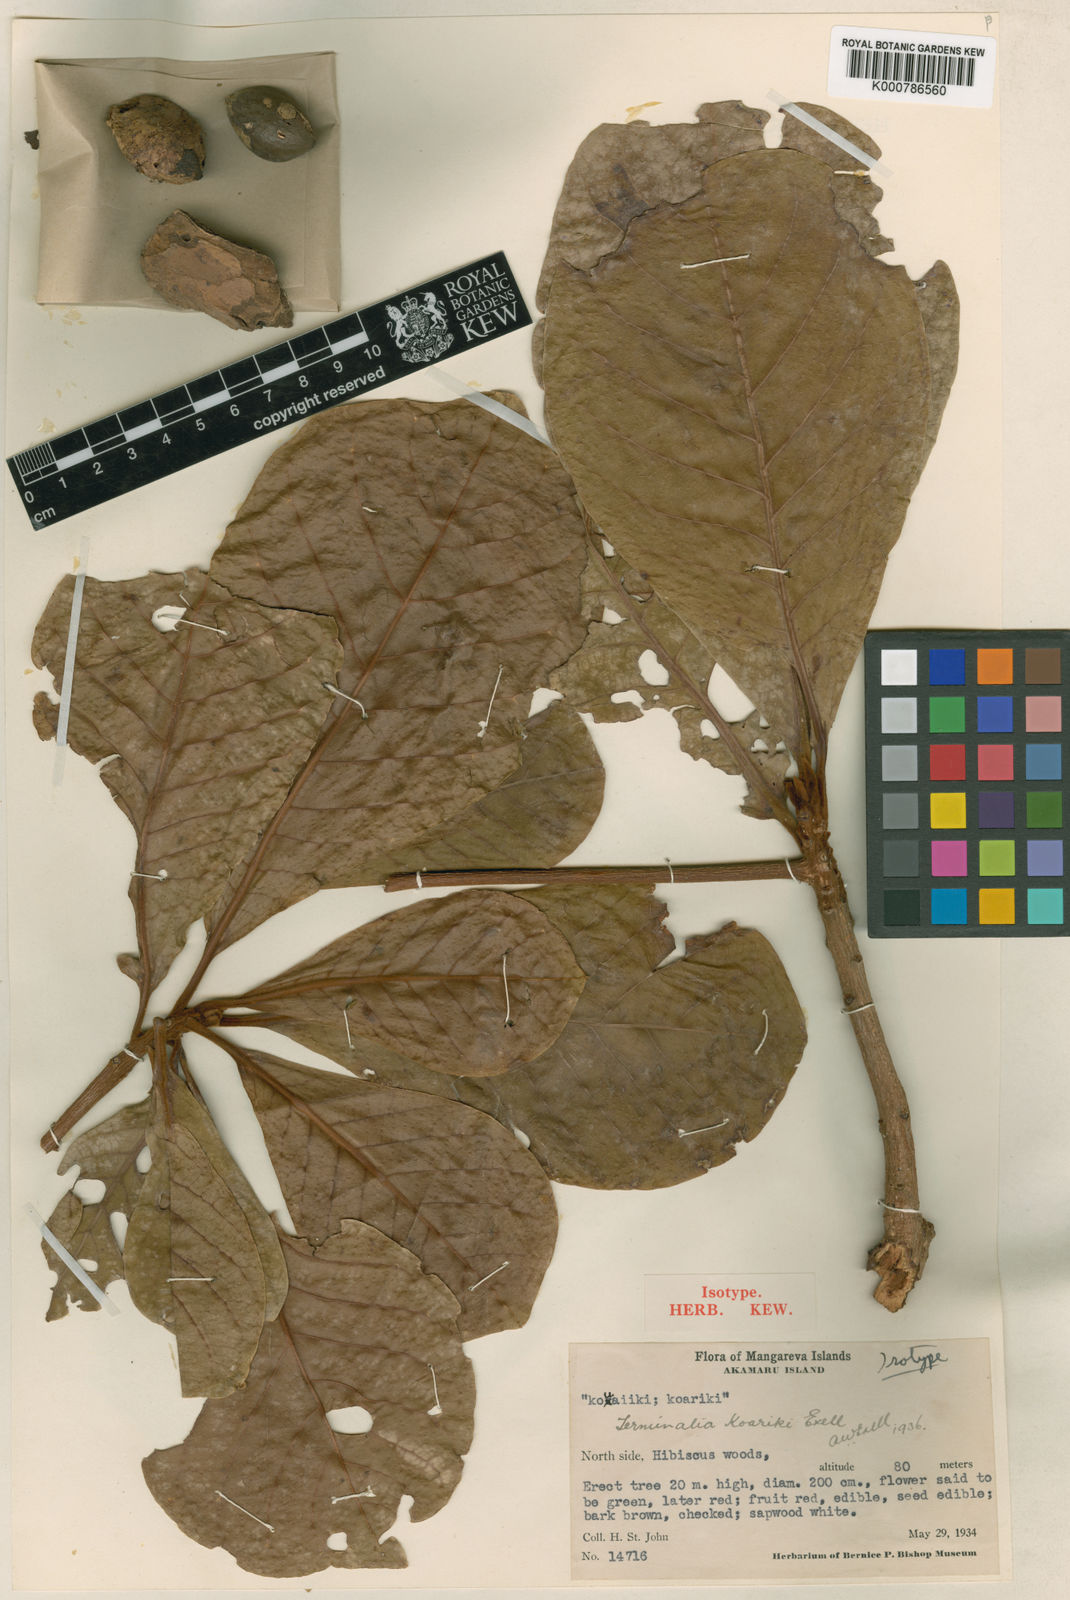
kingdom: Plantae
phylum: Tracheophyta
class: Magnoliopsida
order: Myrtales
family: Combretaceae
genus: Terminalia
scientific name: Terminalia glabrata
